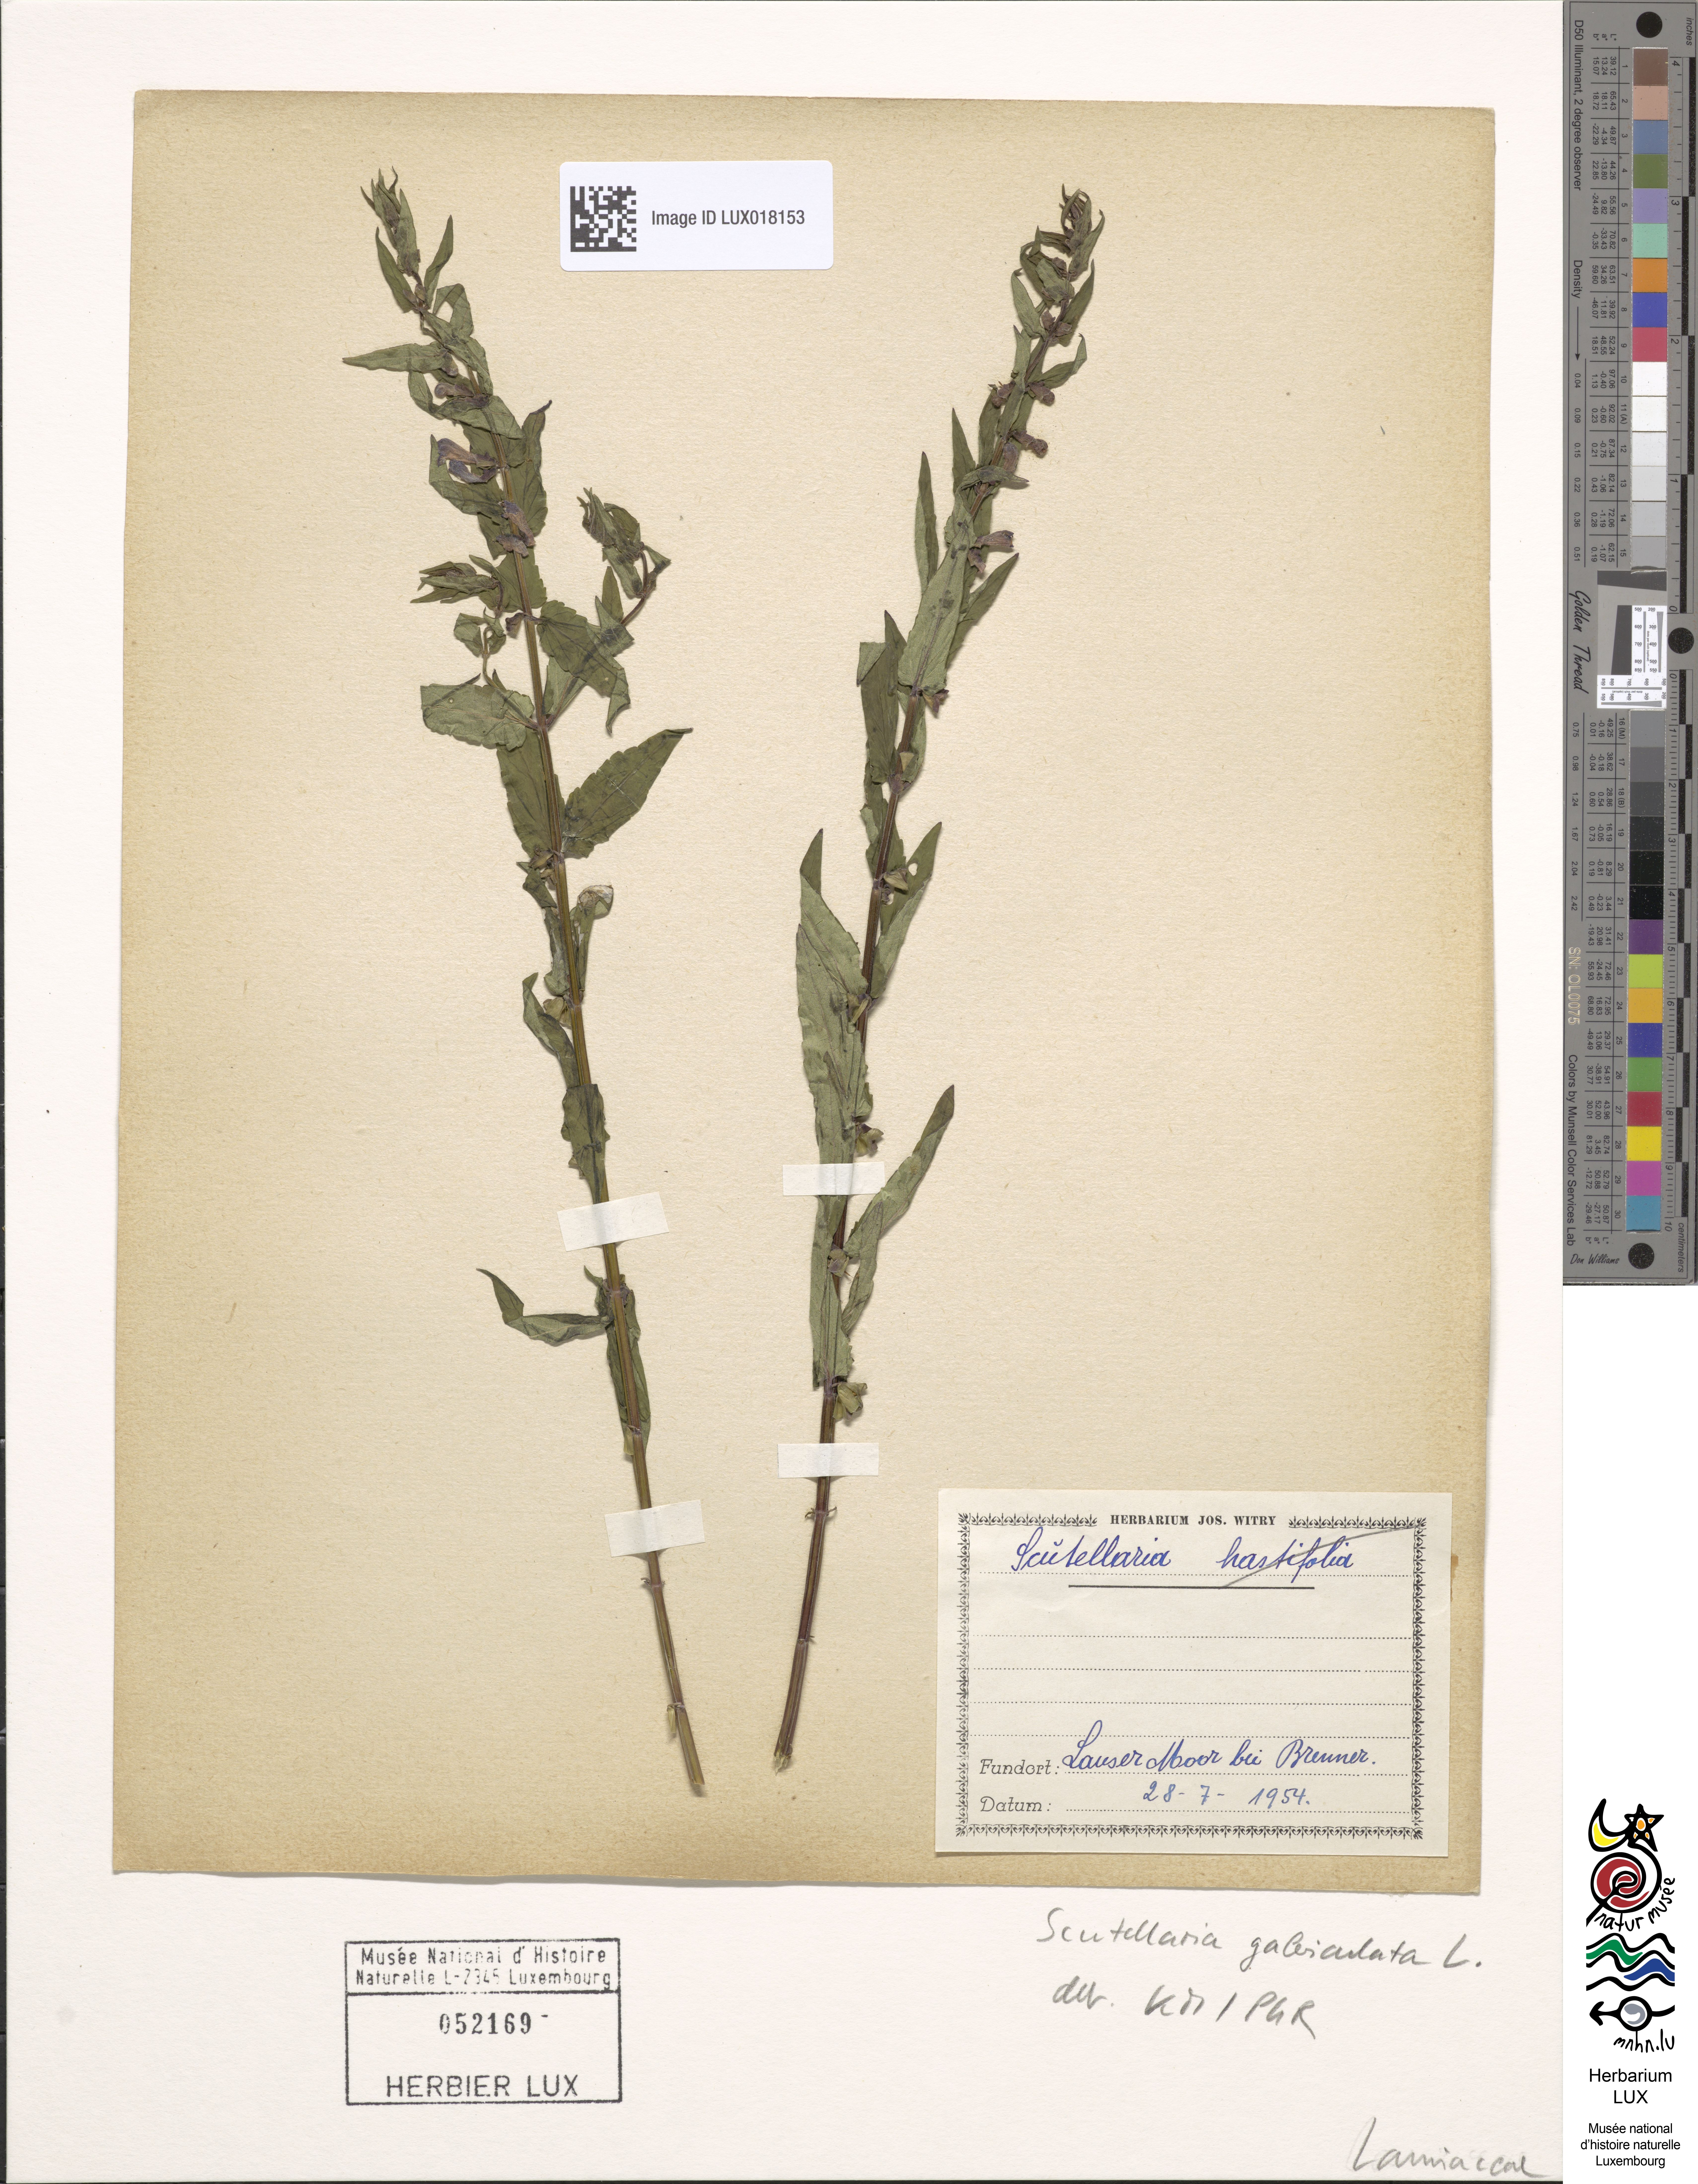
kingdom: Plantae
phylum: Tracheophyta
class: Magnoliopsida
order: Lamiales
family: Lamiaceae
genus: Scutellaria
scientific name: Scutellaria galericulata
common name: Skullcap
